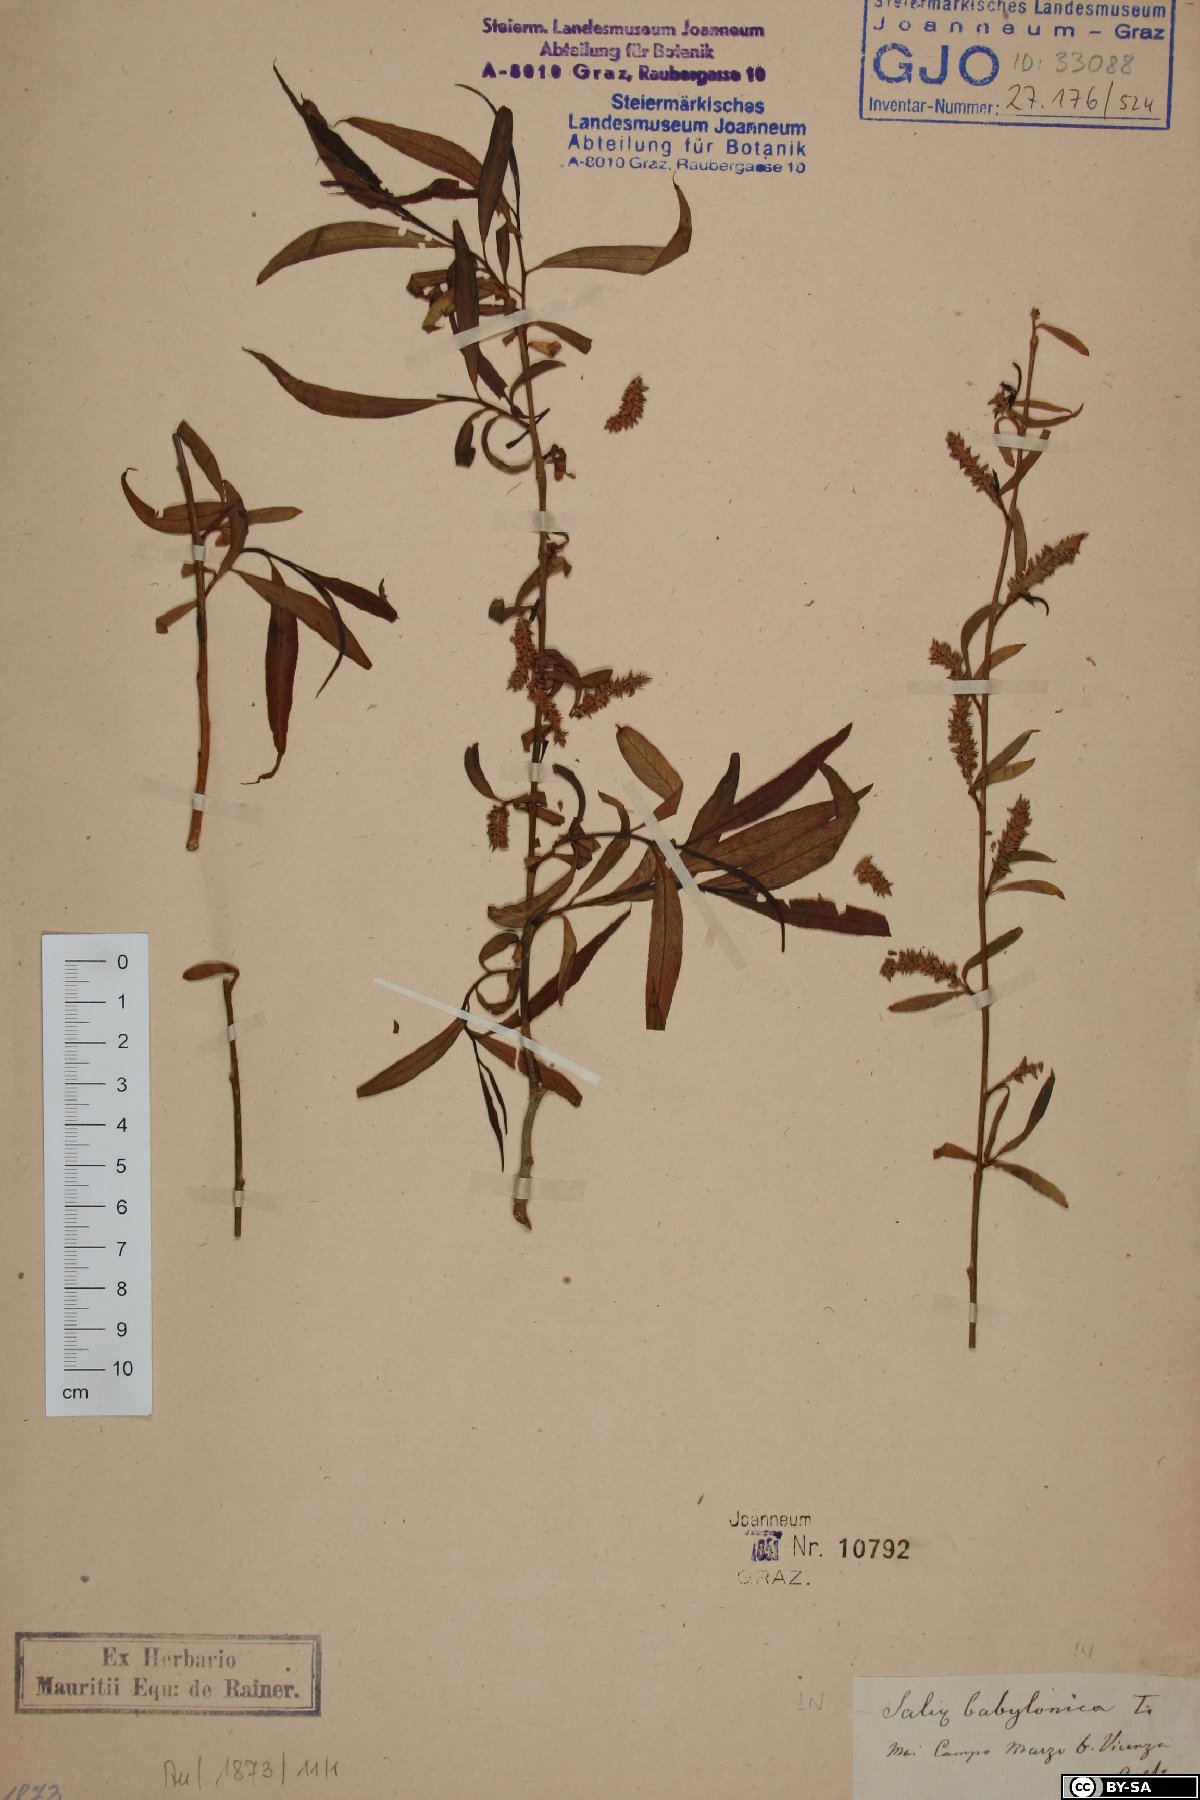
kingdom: Plantae
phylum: Tracheophyta
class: Magnoliopsida
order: Malpighiales
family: Salicaceae
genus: Salix
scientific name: Salix babylonica
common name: Weeping willow
